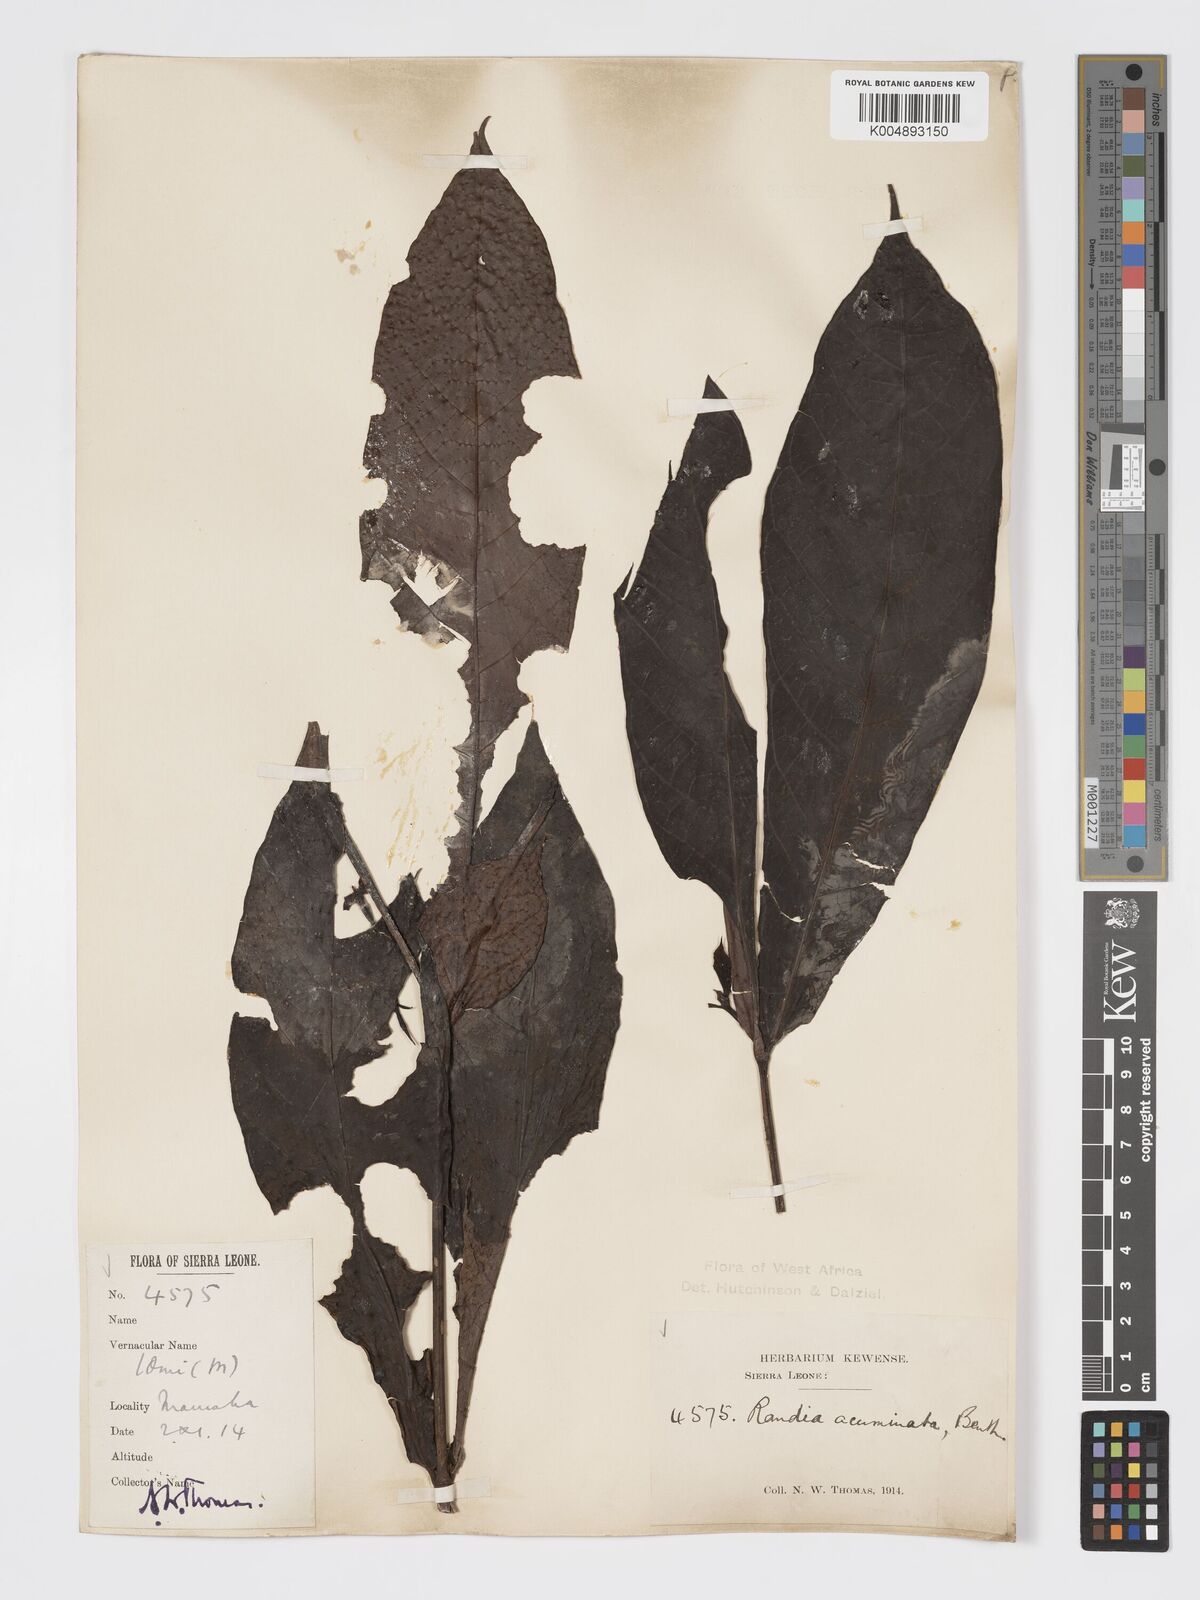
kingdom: Plantae
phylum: Tracheophyta
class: Magnoliopsida
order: Gentianales
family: Rubiaceae
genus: Massularia
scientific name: Massularia acuminata
